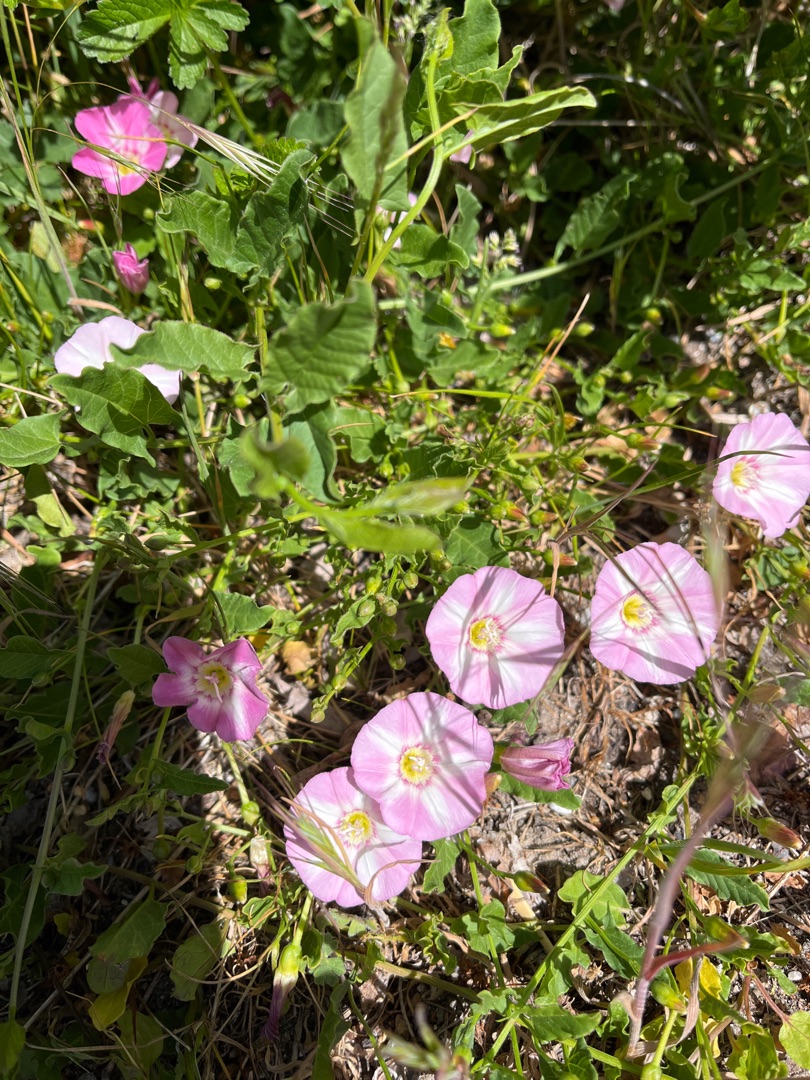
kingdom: Plantae
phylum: Tracheophyta
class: Magnoliopsida
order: Solanales
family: Convolvulaceae
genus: Convolvulus
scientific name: Convolvulus arvensis
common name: Ager-snerle
